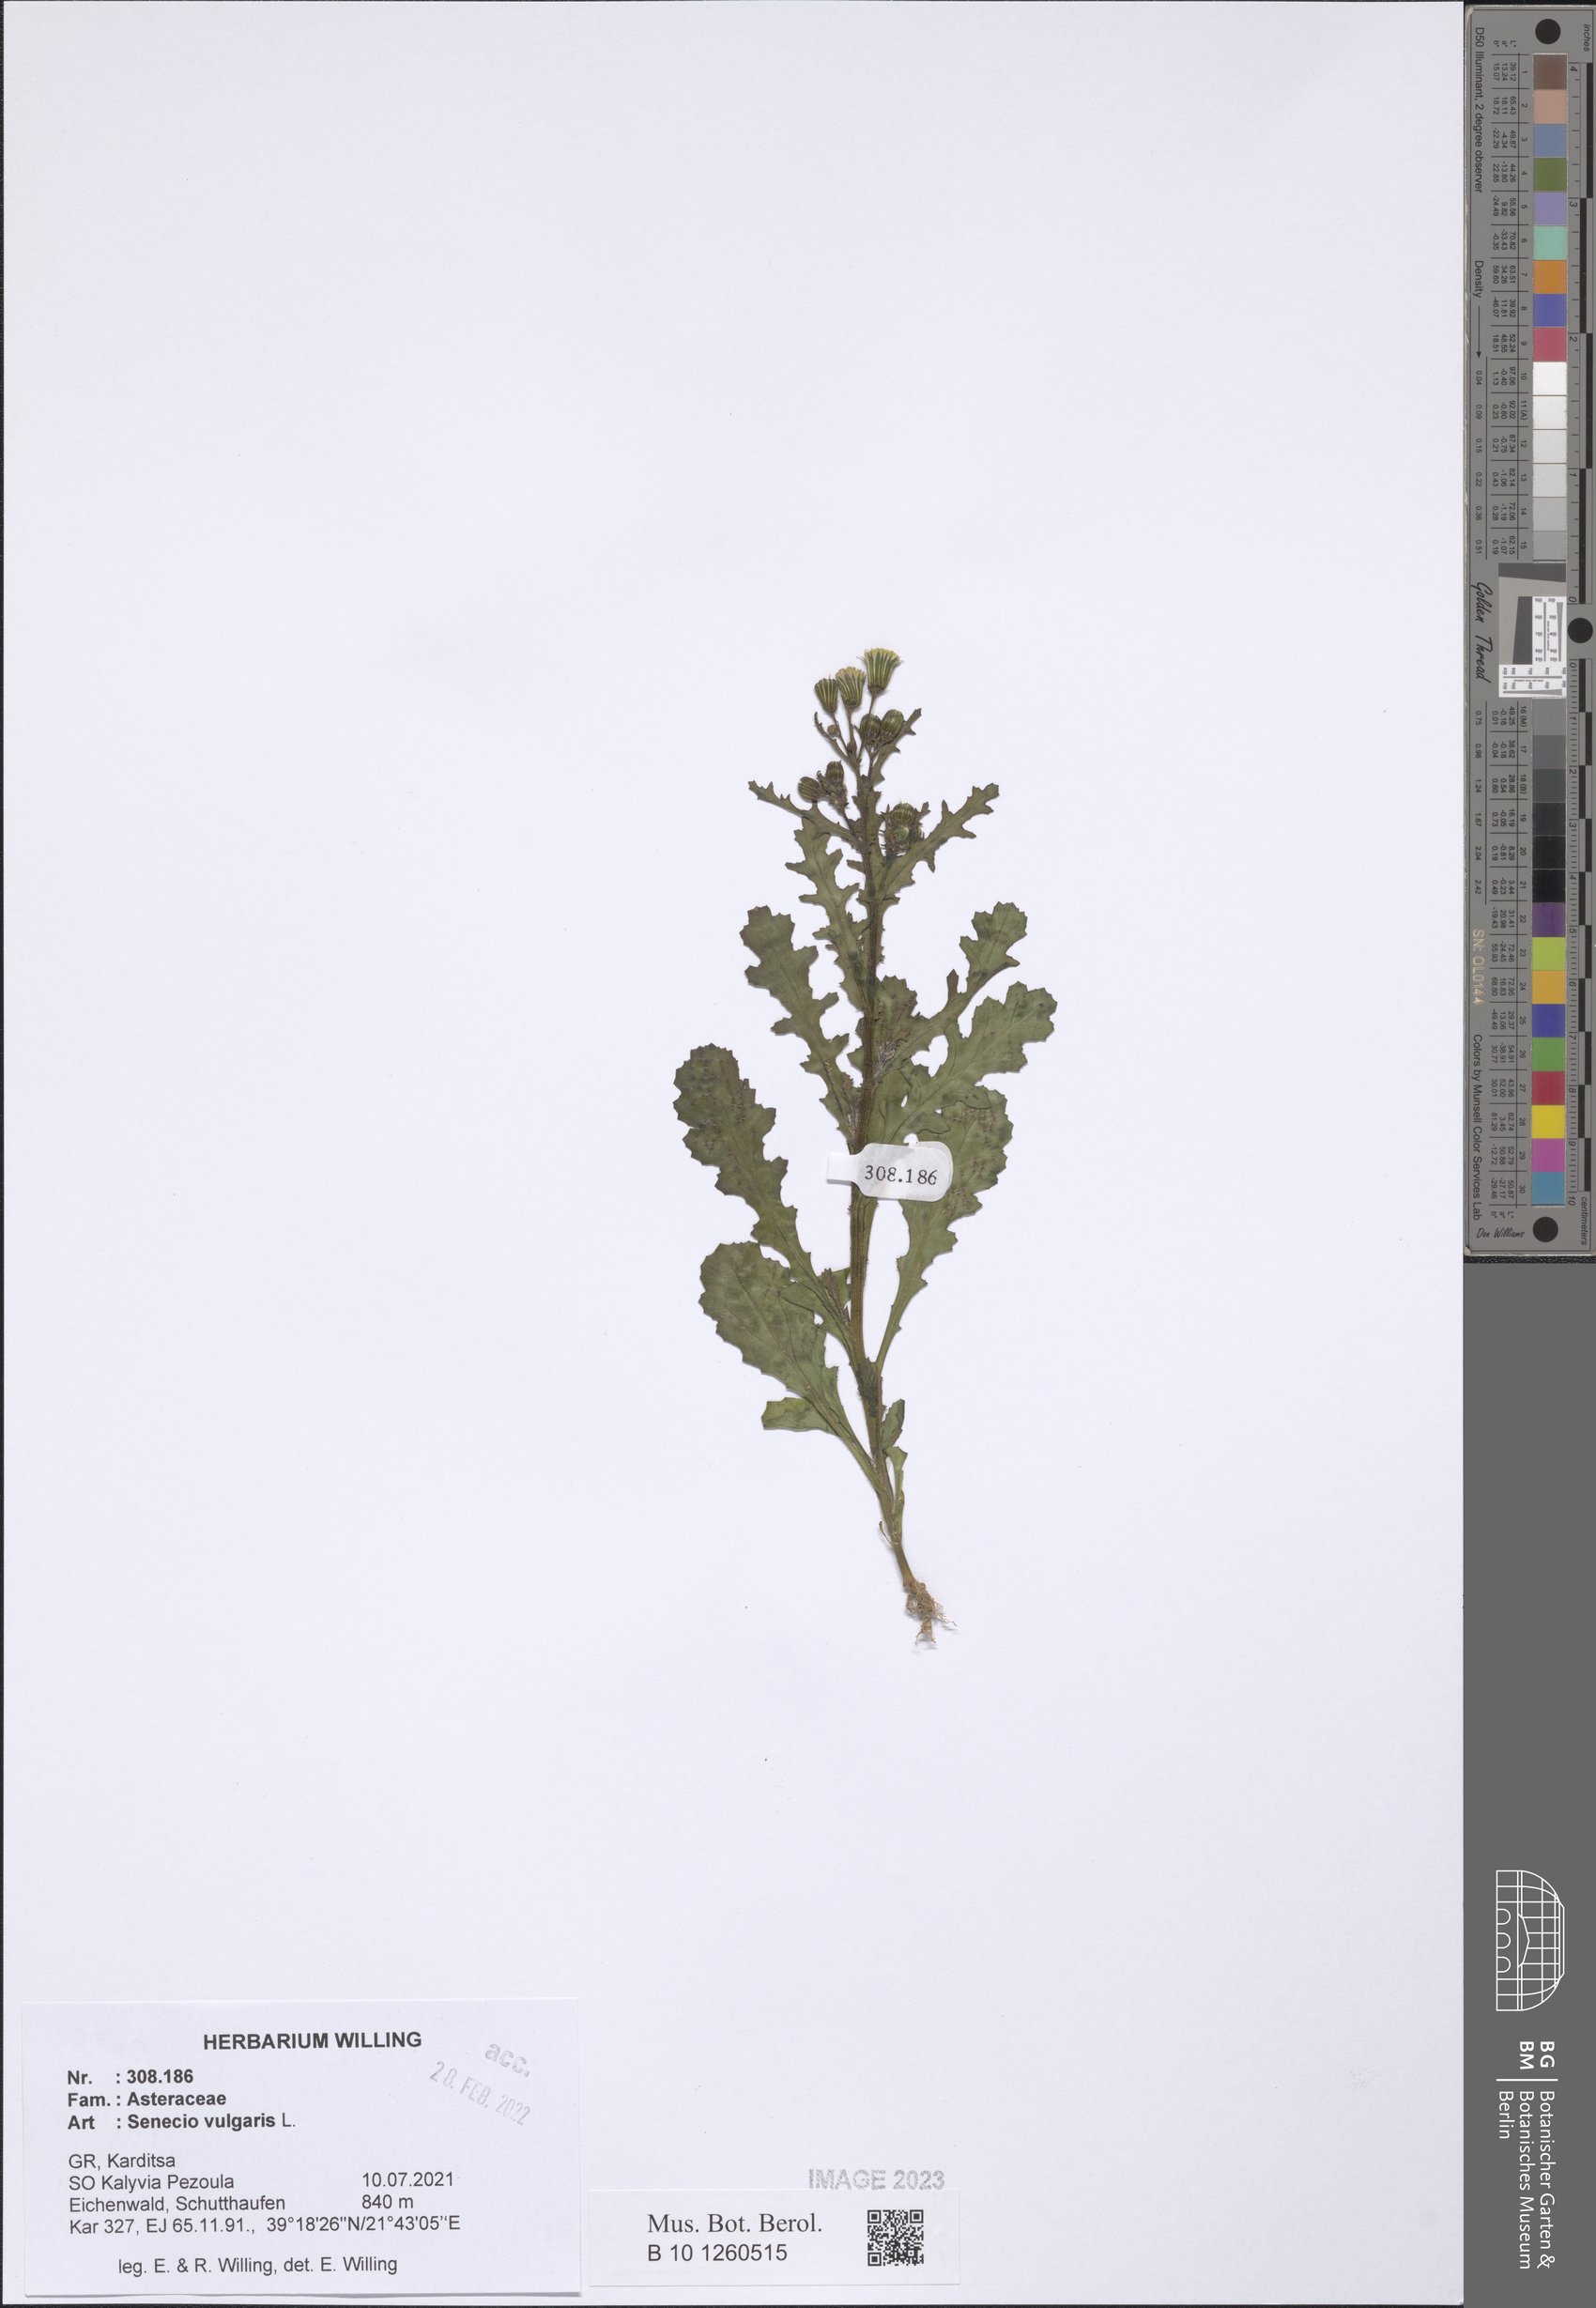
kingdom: Plantae
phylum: Tracheophyta
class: Magnoliopsida
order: Asterales
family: Asteraceae
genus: Senecio
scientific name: Senecio vulgaris
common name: Old-man-in-the-spring
